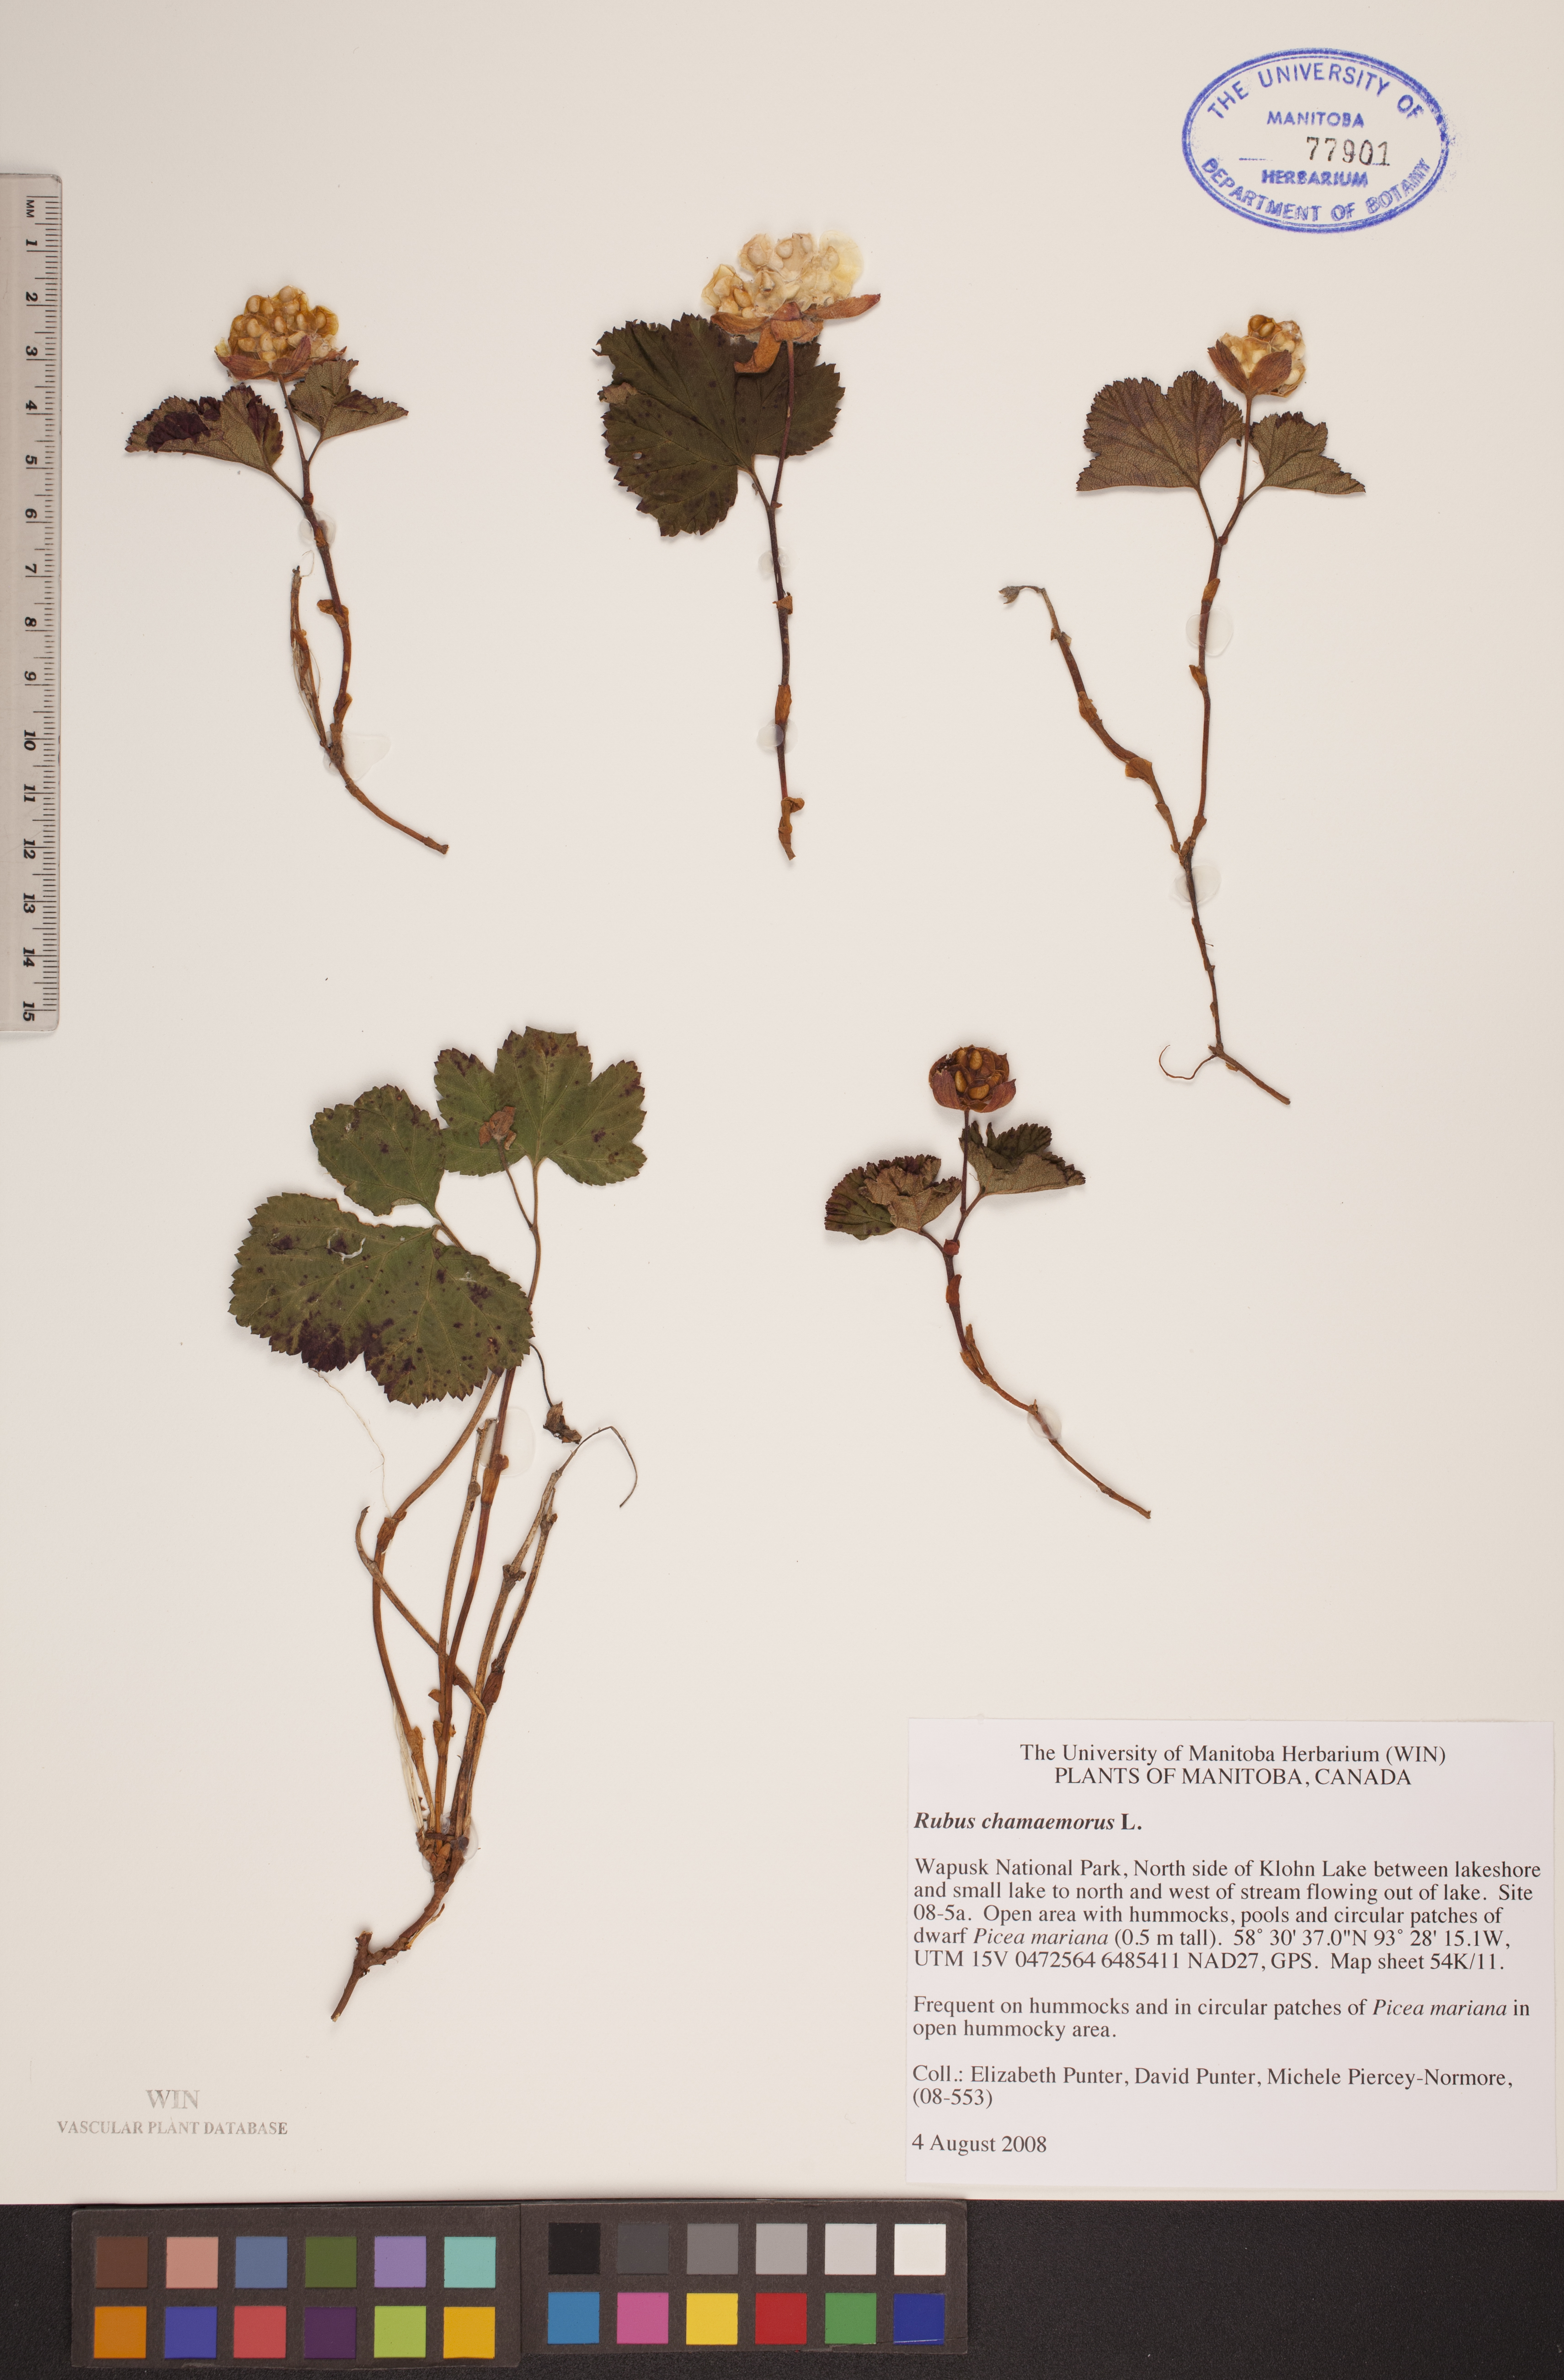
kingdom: Plantae
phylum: Tracheophyta
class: Magnoliopsida
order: Rosales
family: Rosaceae
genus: Rubus
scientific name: Rubus chamaemorus
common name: Cloudberry
